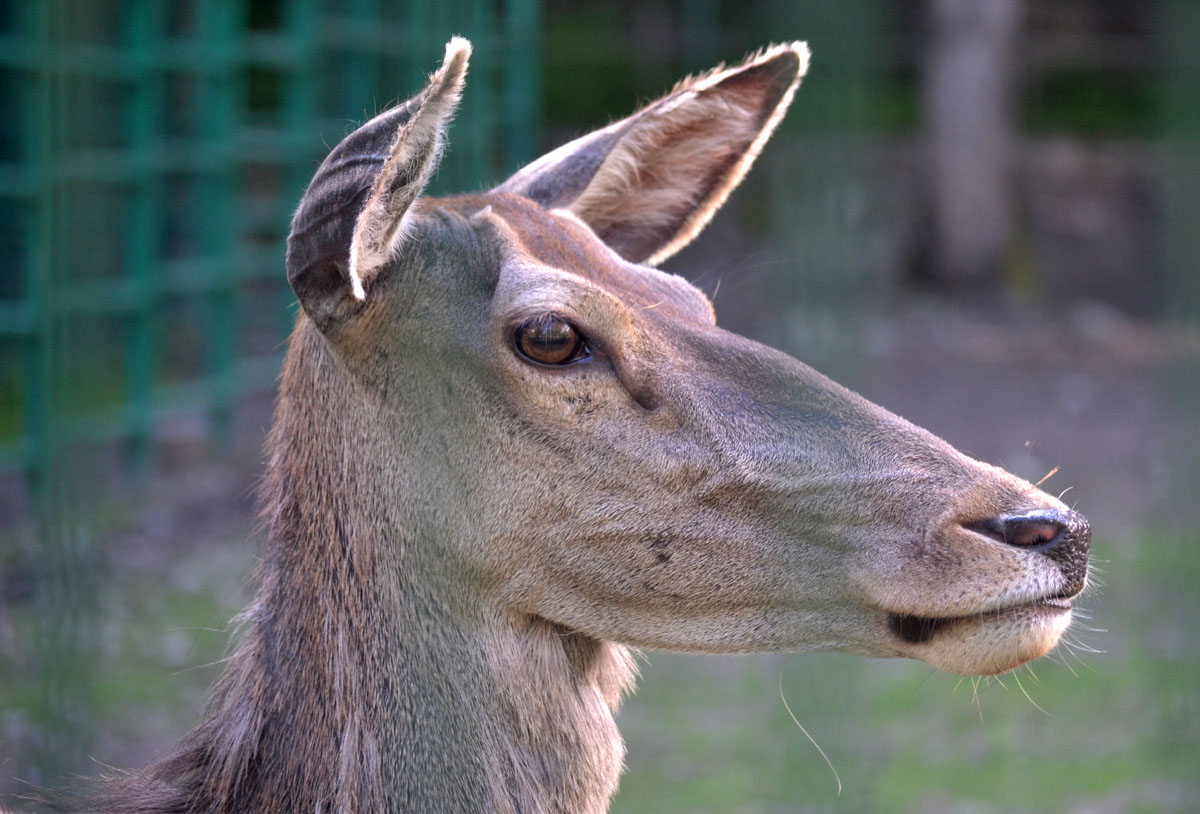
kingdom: Animalia
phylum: Chordata
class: Mammalia
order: Artiodactyla
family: Cervidae
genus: Cervus
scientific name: Cervus elaphus
